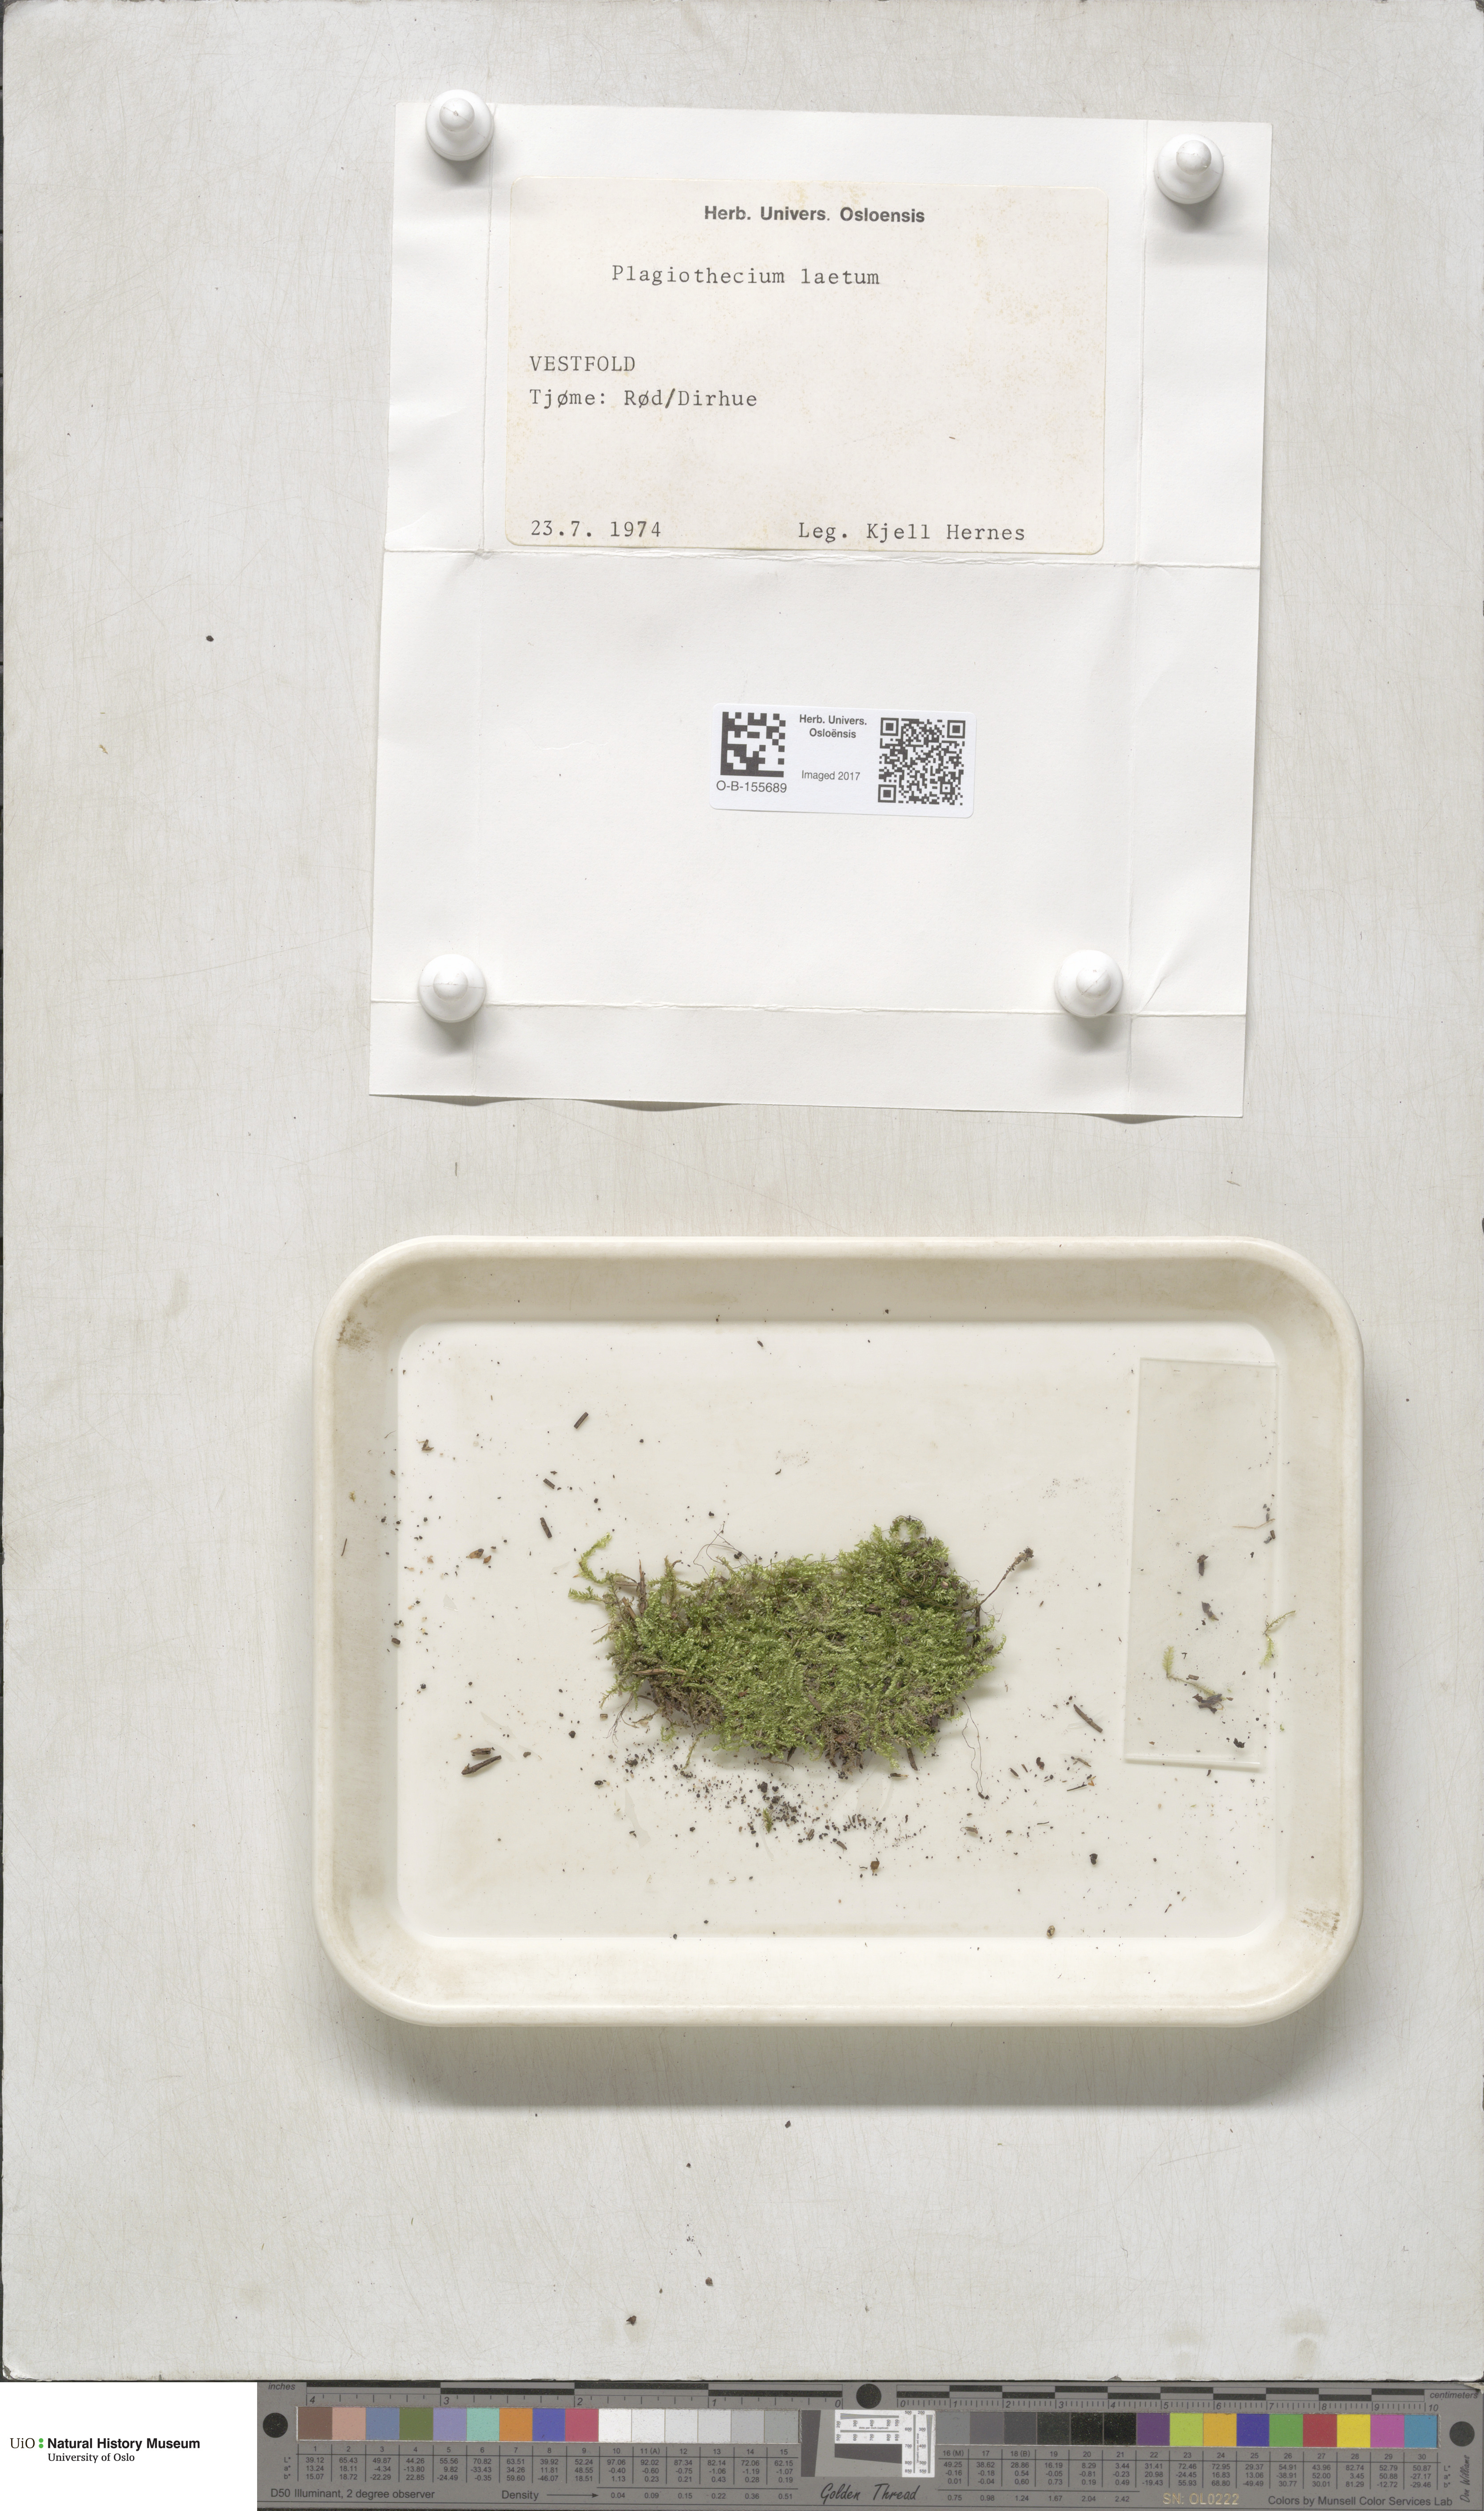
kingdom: Plantae
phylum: Bryophyta
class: Bryopsida
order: Hypnales
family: Plagiotheciaceae
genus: Plagiothecium
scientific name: Plagiothecium laetum
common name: Bright silk moss
